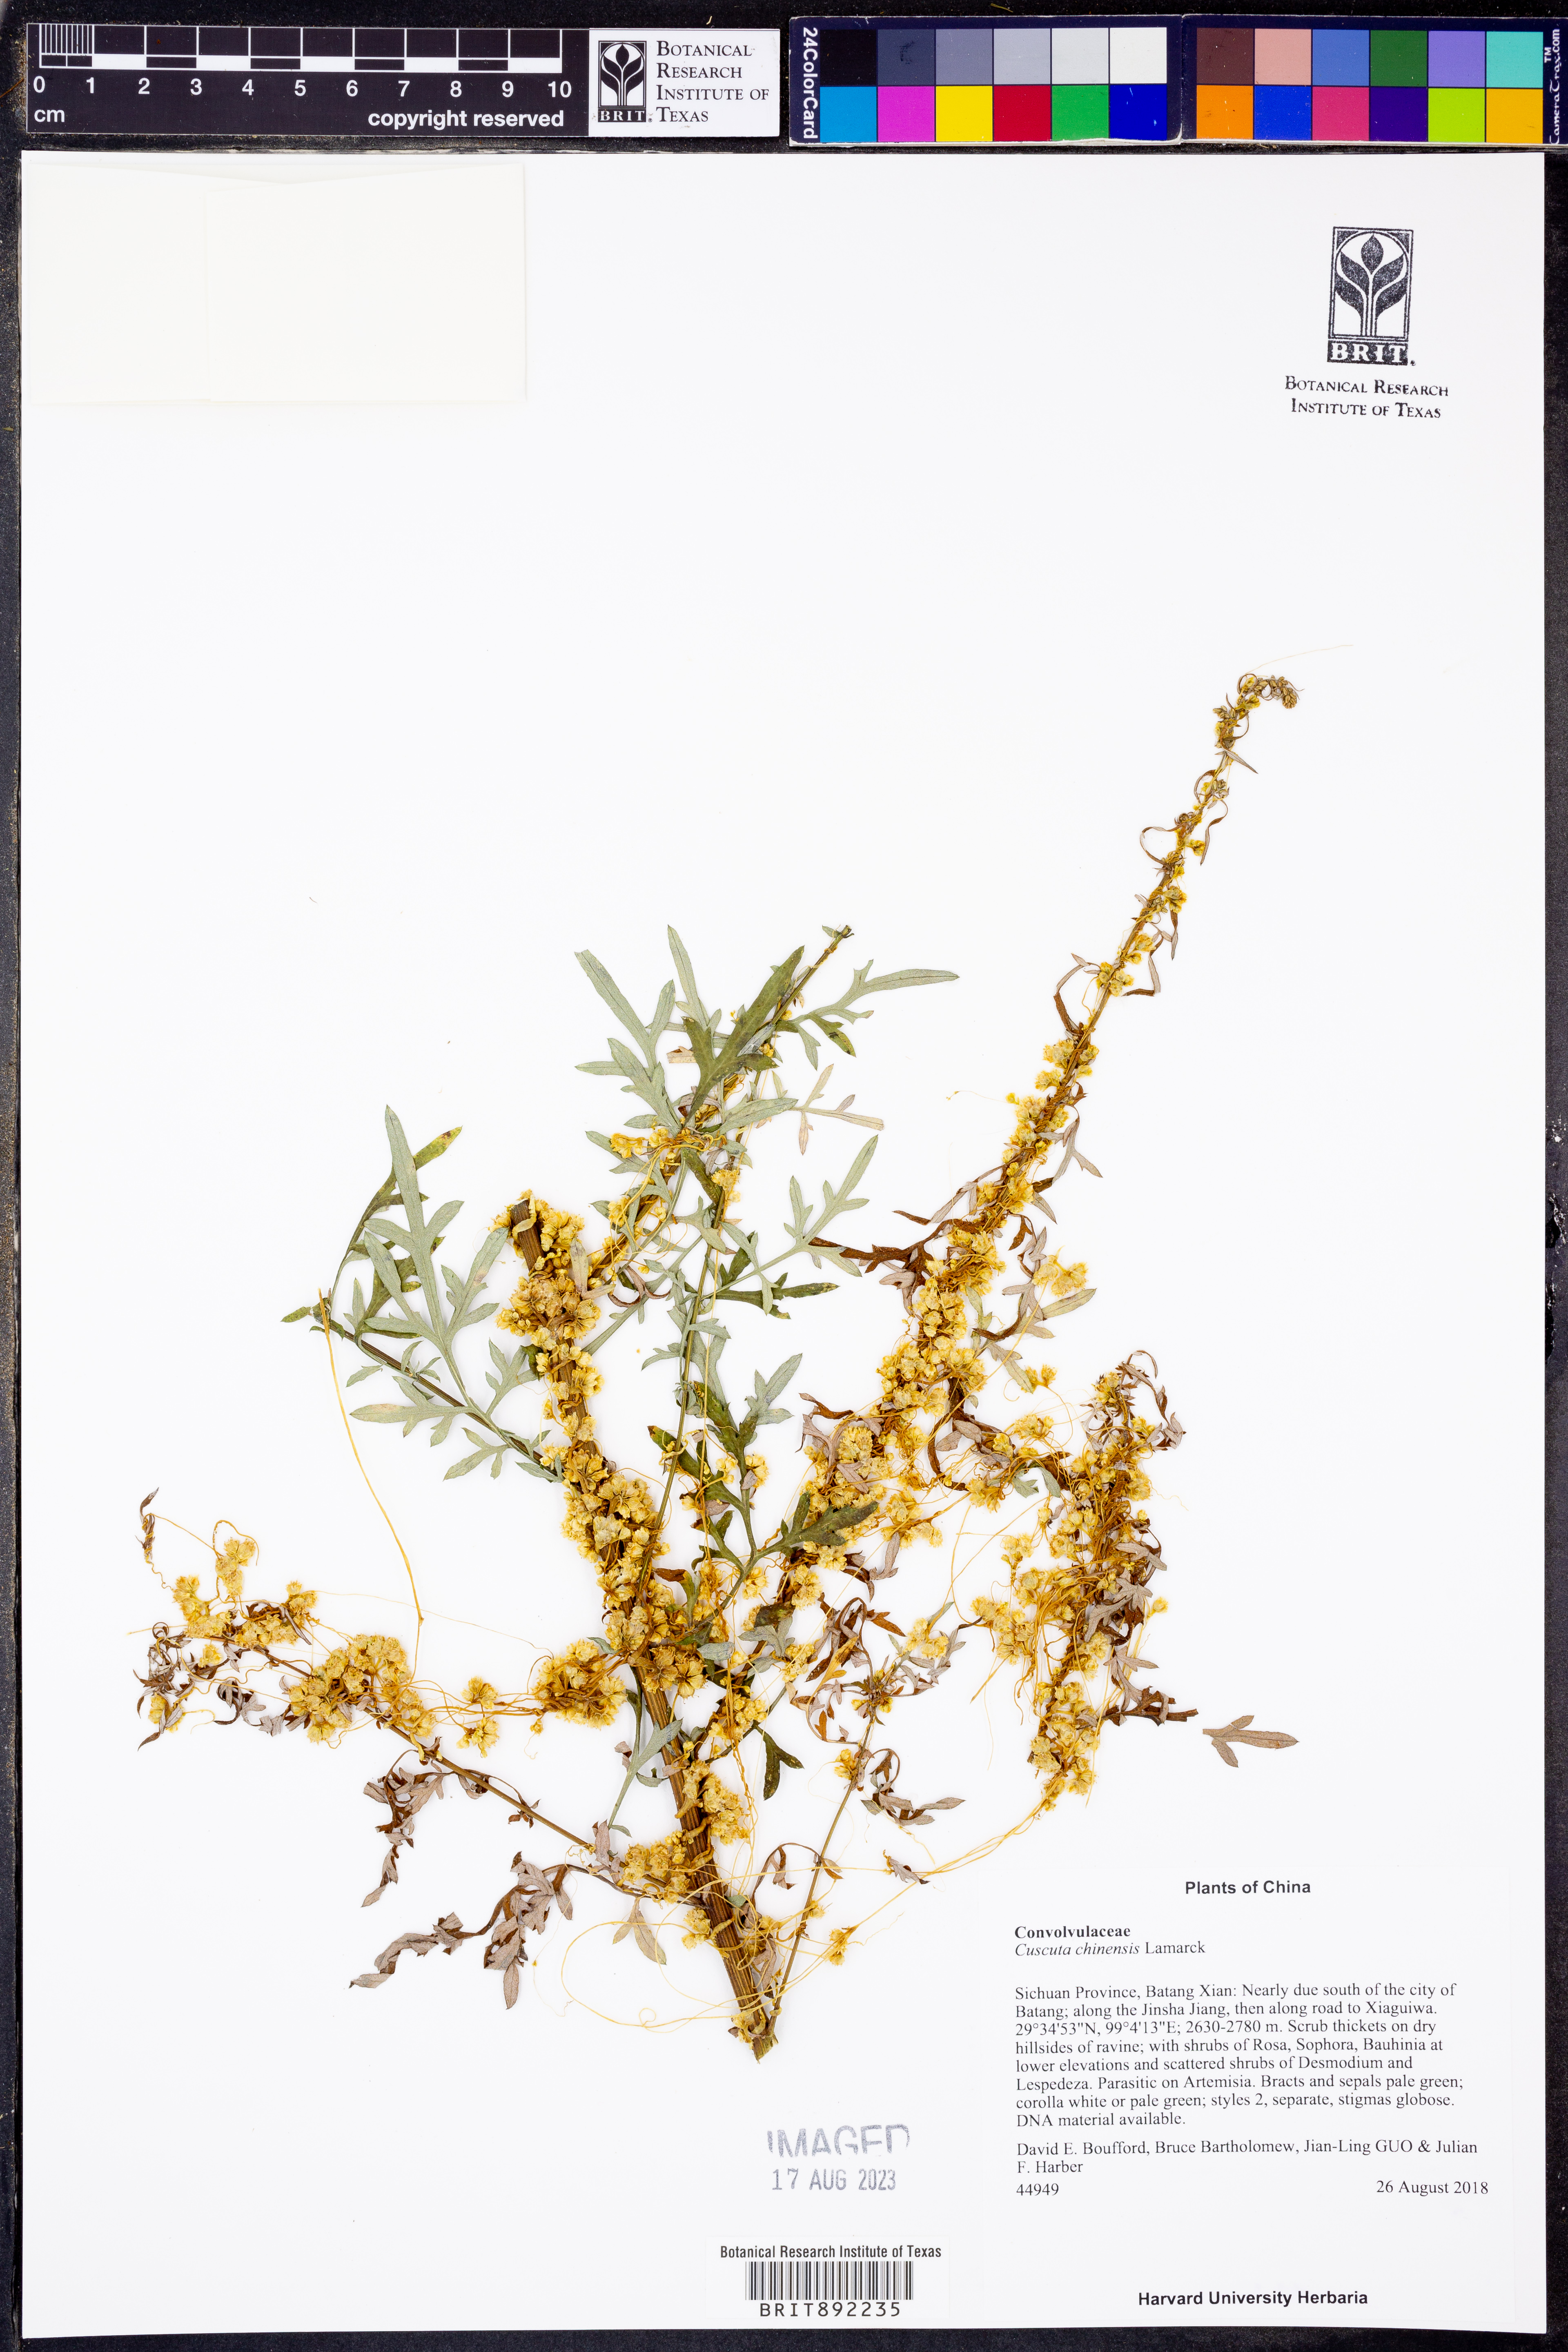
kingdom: Plantae
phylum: Tracheophyta
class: Magnoliopsida
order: Solanales
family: Convolvulaceae
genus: Cuscuta
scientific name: Cuscuta chinensis
